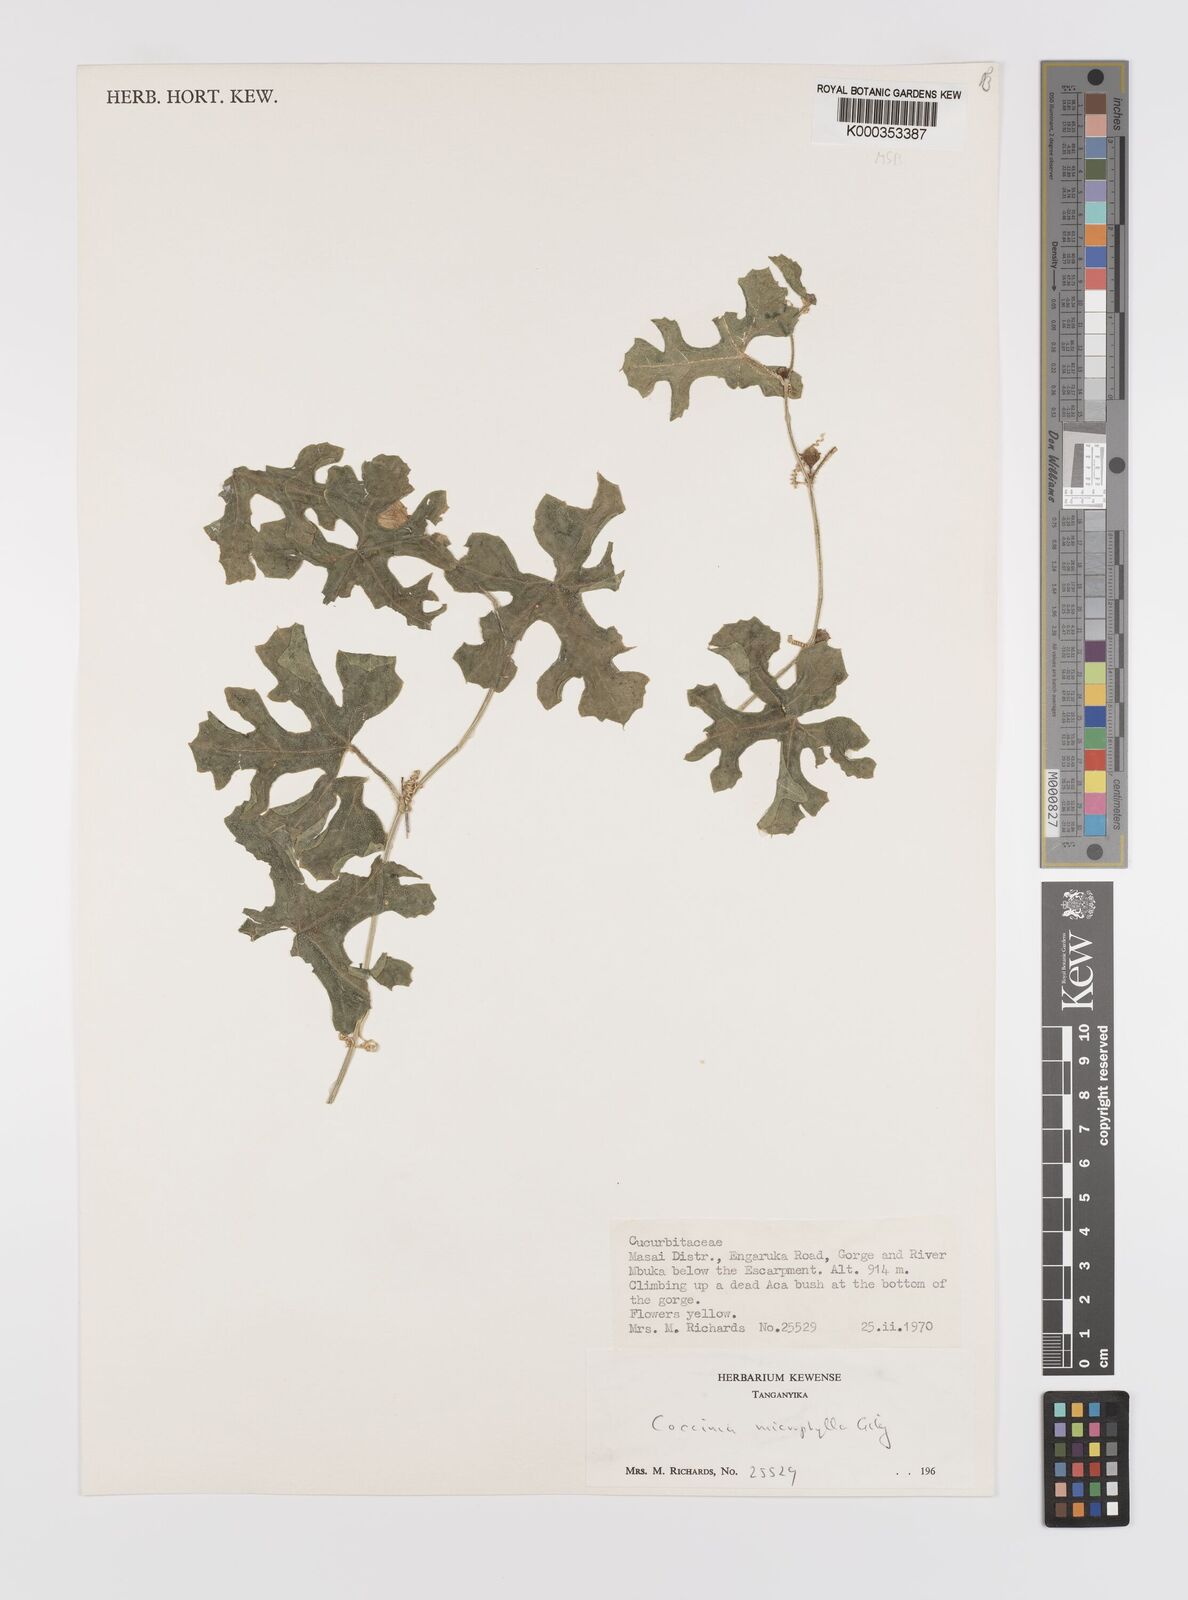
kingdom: Plantae
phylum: Tracheophyta
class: Magnoliopsida
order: Cucurbitales
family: Cucurbitaceae
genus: Coccinia
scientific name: Coccinia microphylla
